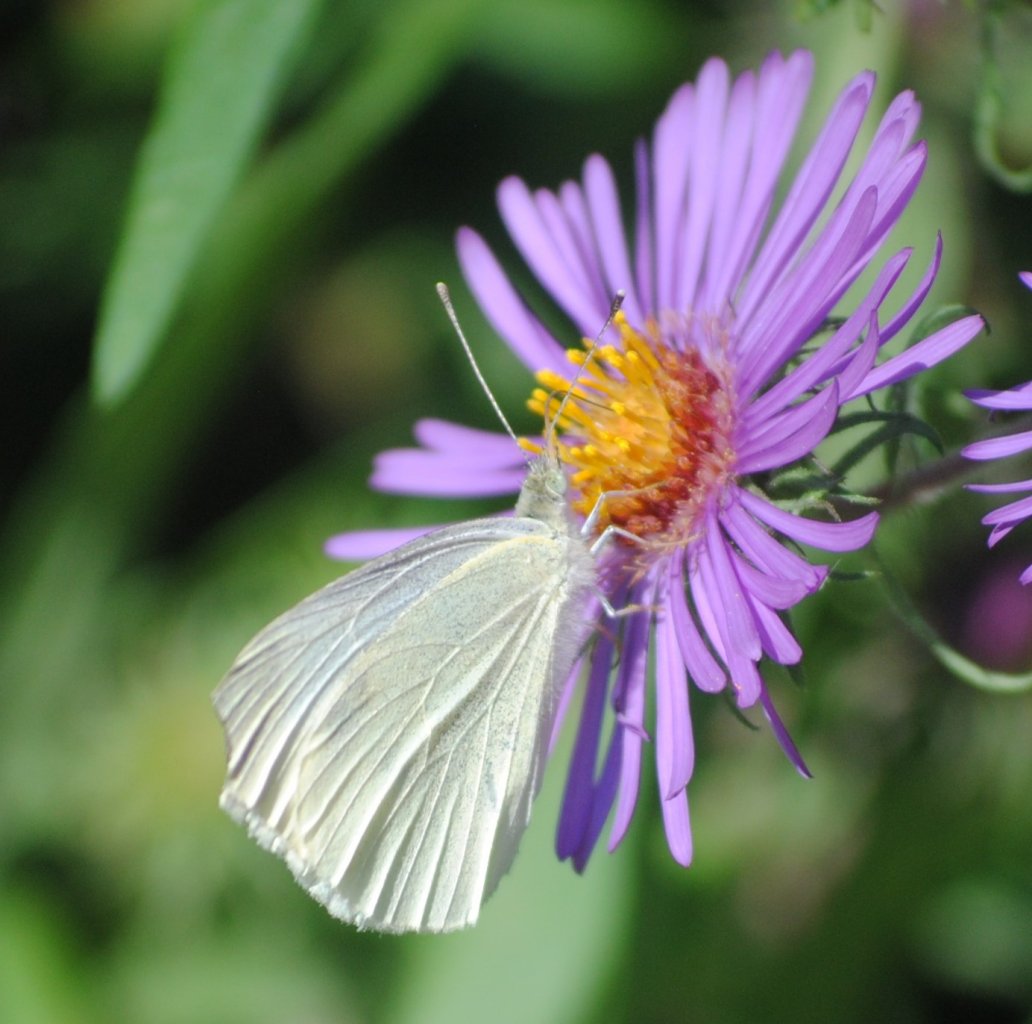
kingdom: Animalia
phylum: Arthropoda
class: Insecta
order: Lepidoptera
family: Pieridae
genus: Pieris
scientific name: Pieris rapae
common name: Cabbage White
